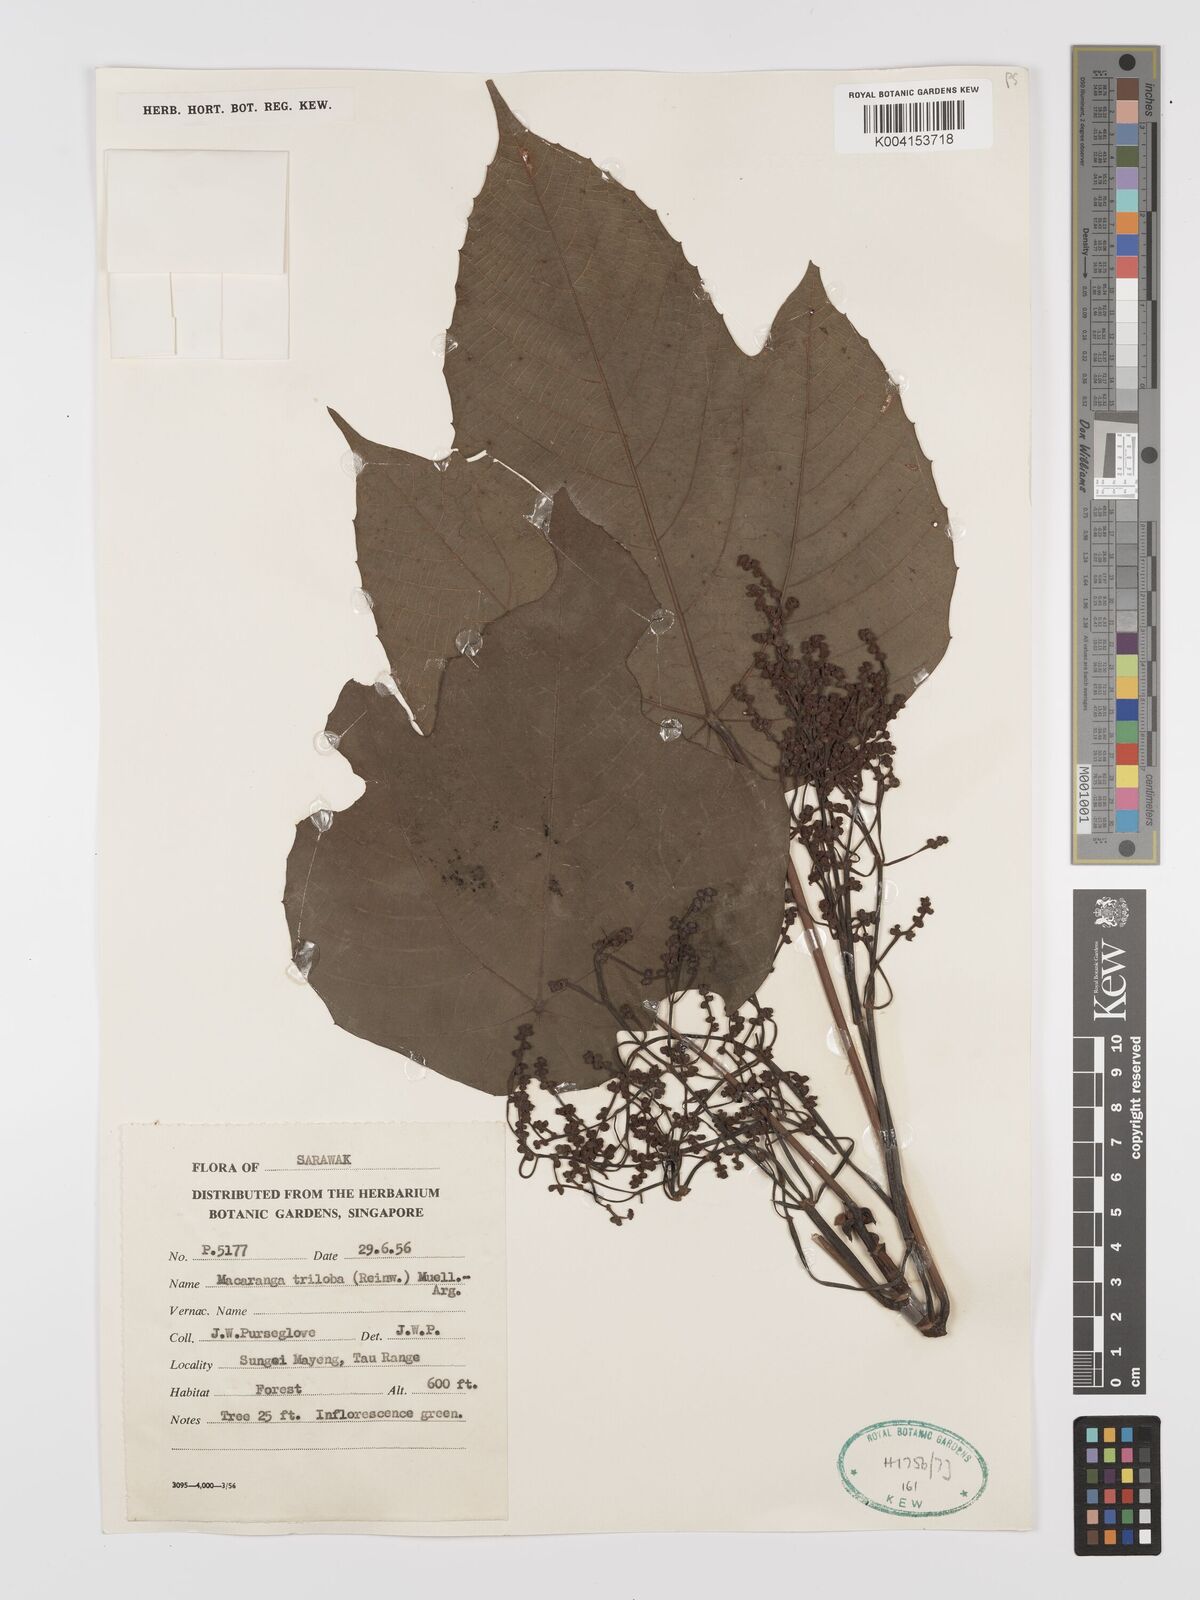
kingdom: Plantae
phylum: Tracheophyta
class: Magnoliopsida
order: Malpighiales
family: Euphorbiaceae
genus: Macaranga
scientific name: Macaranga triloba
